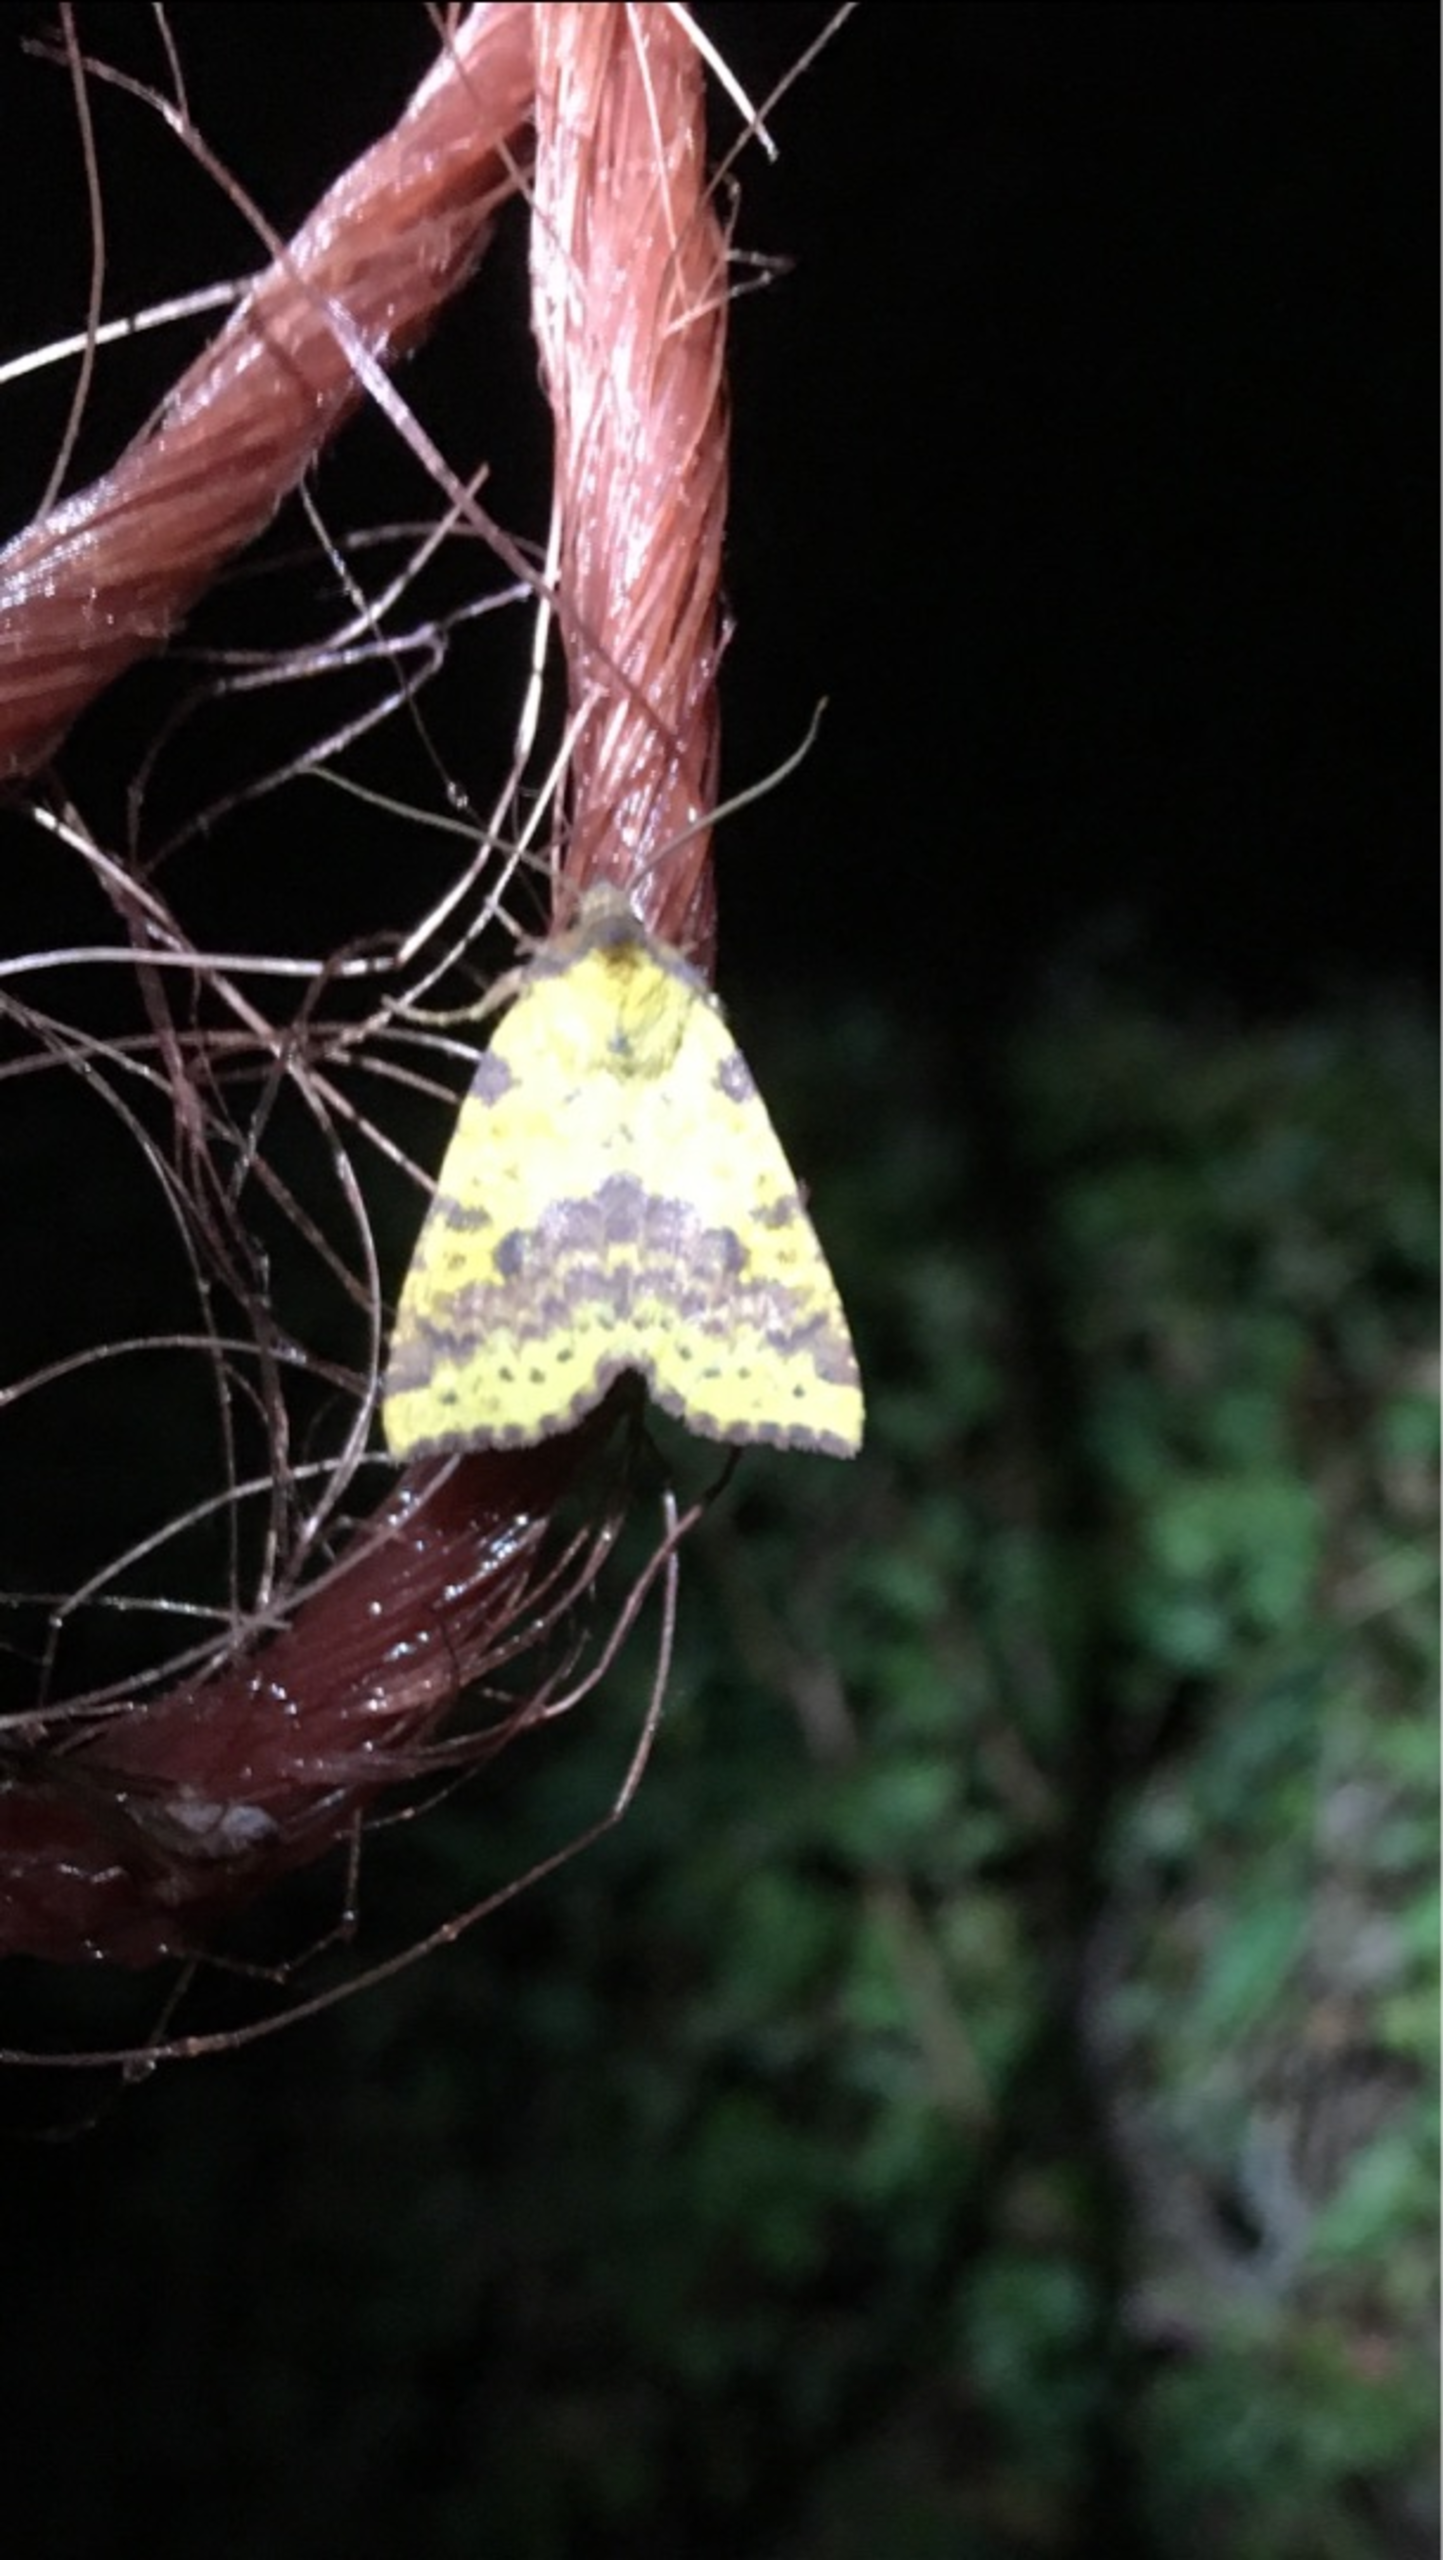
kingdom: Animalia
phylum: Arthropoda
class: Insecta
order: Lepidoptera
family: Noctuidae
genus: Xanthia
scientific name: Xanthia togata
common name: Toga-septemberugle
